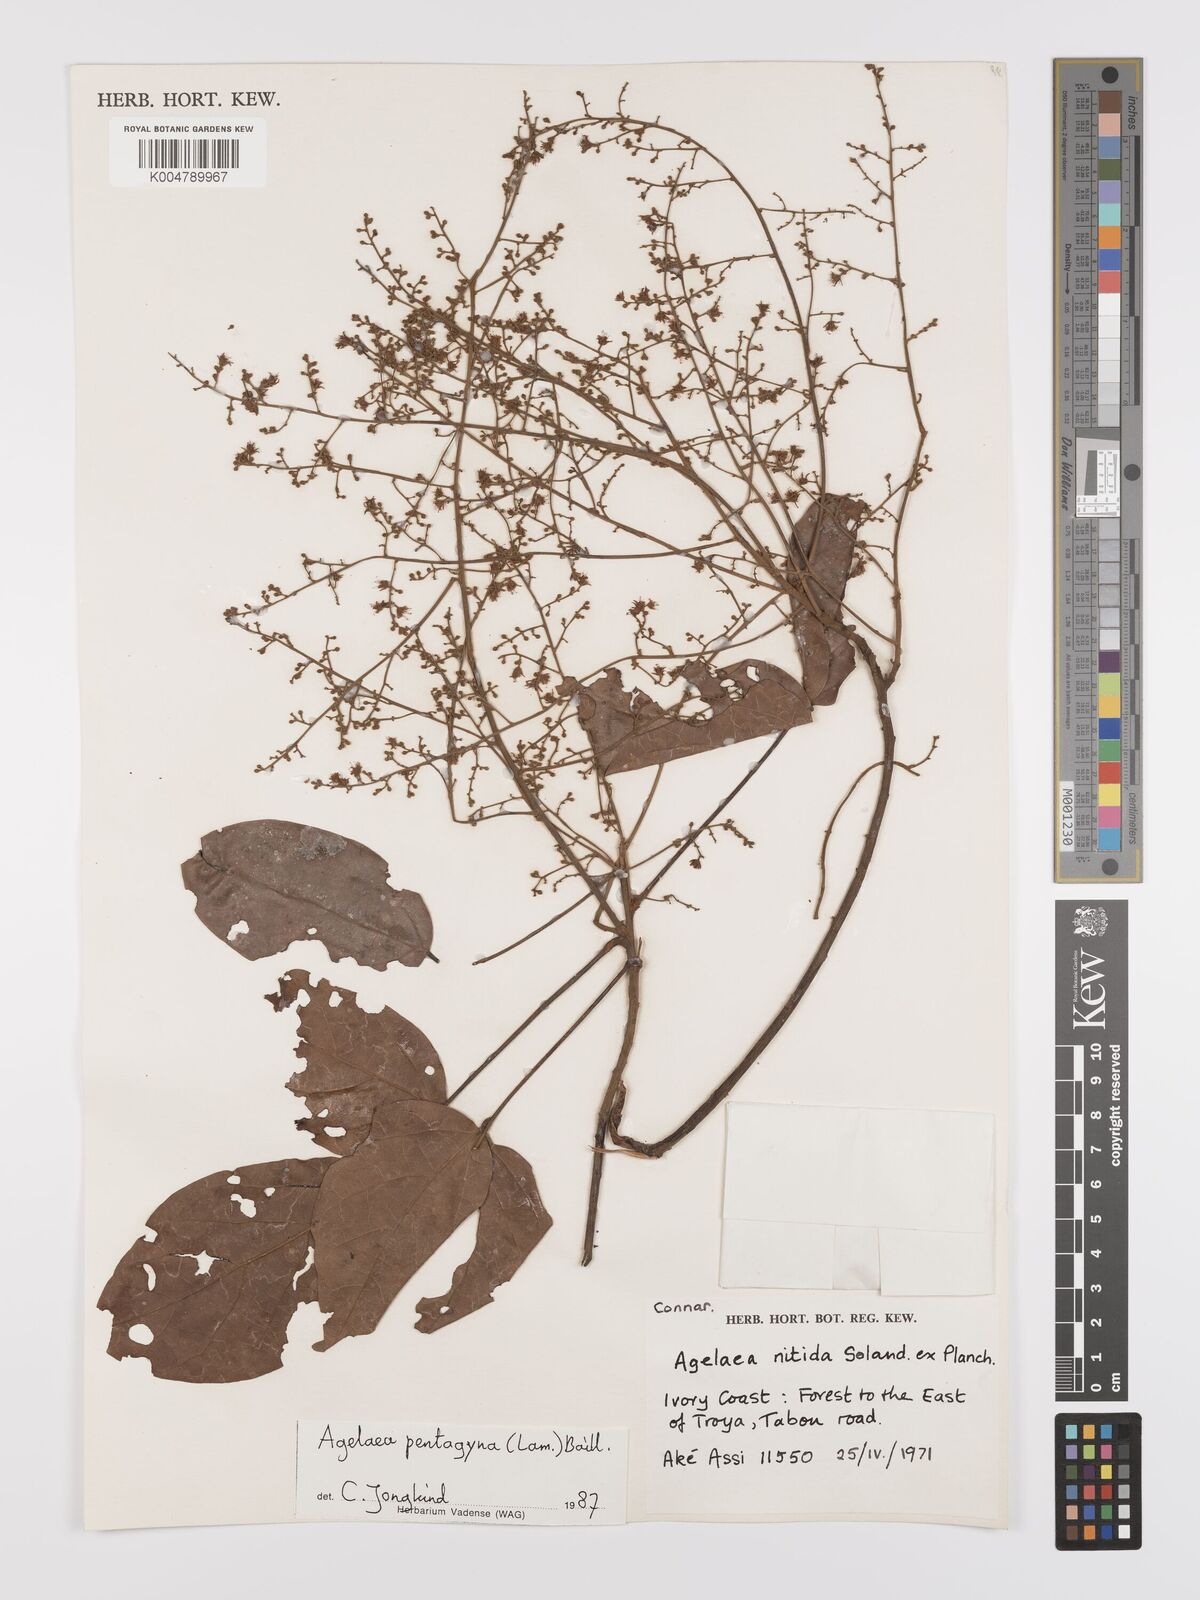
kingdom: Plantae
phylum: Tracheophyta
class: Magnoliopsida
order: Oxalidales
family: Connaraceae
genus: Agelaea
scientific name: Agelaea pentagyna
